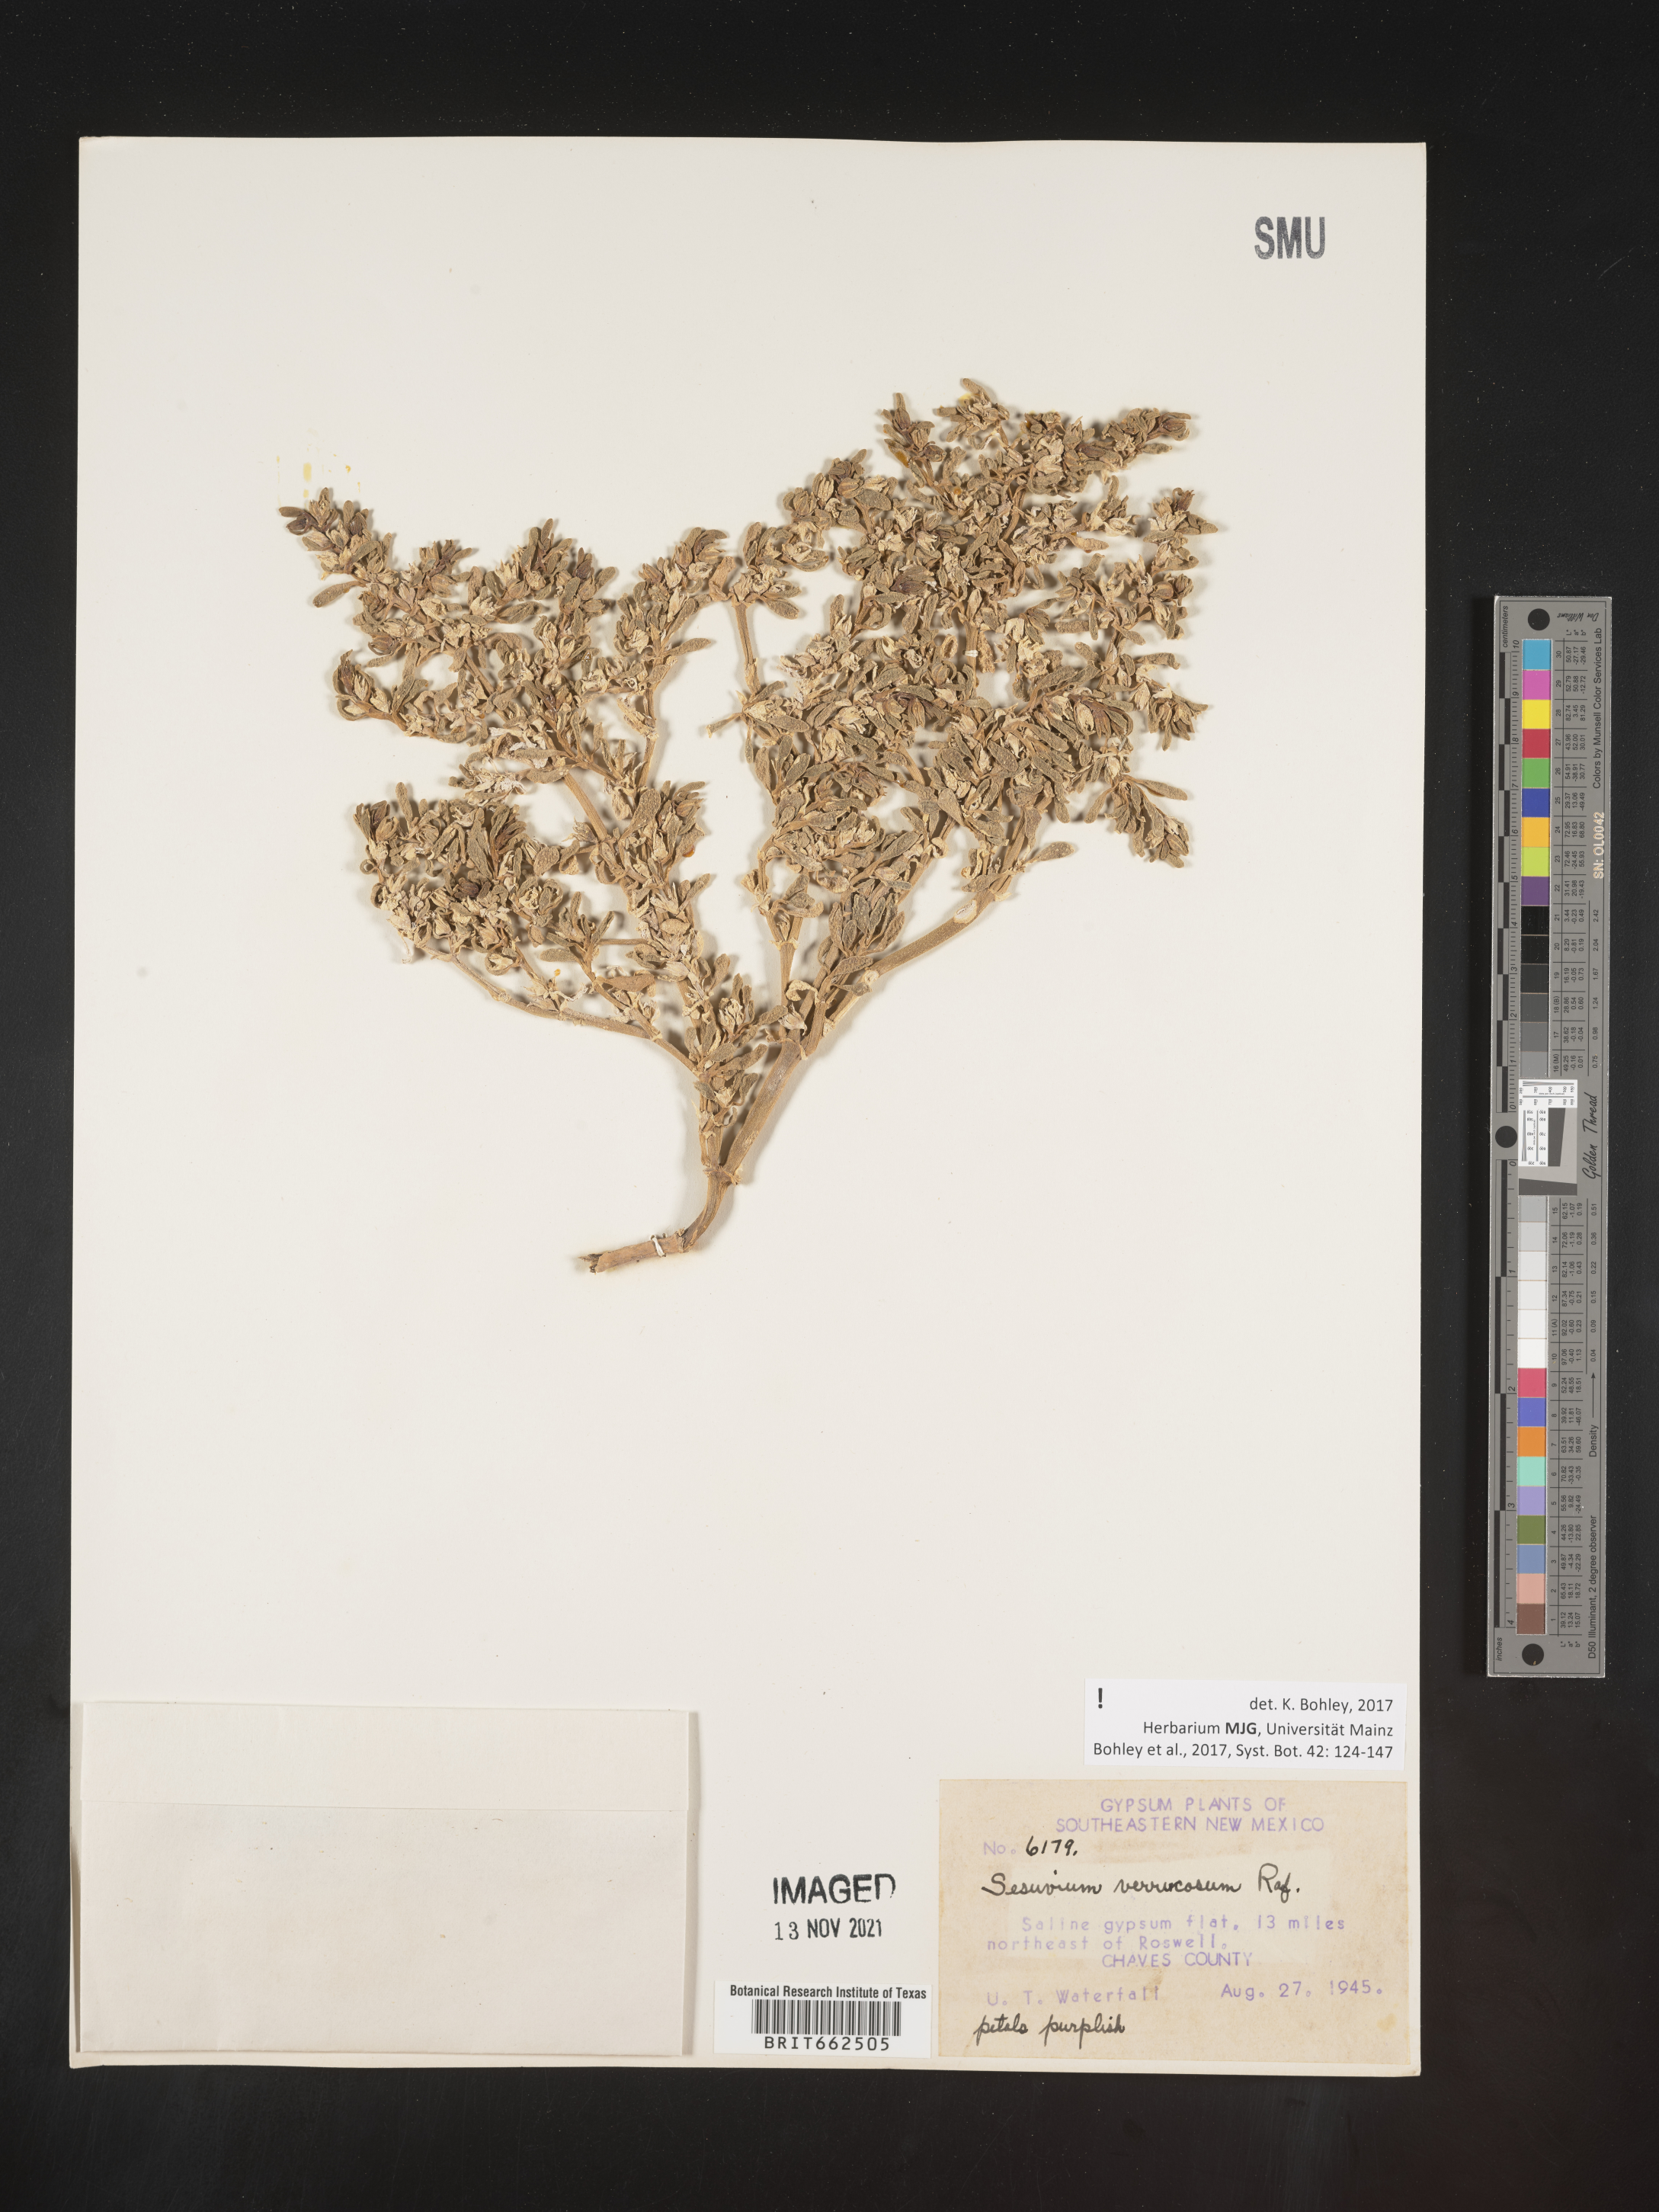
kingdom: Plantae
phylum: Tracheophyta
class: Magnoliopsida
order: Caryophyllales
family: Aizoaceae
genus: Sesuvium
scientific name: Sesuvium
